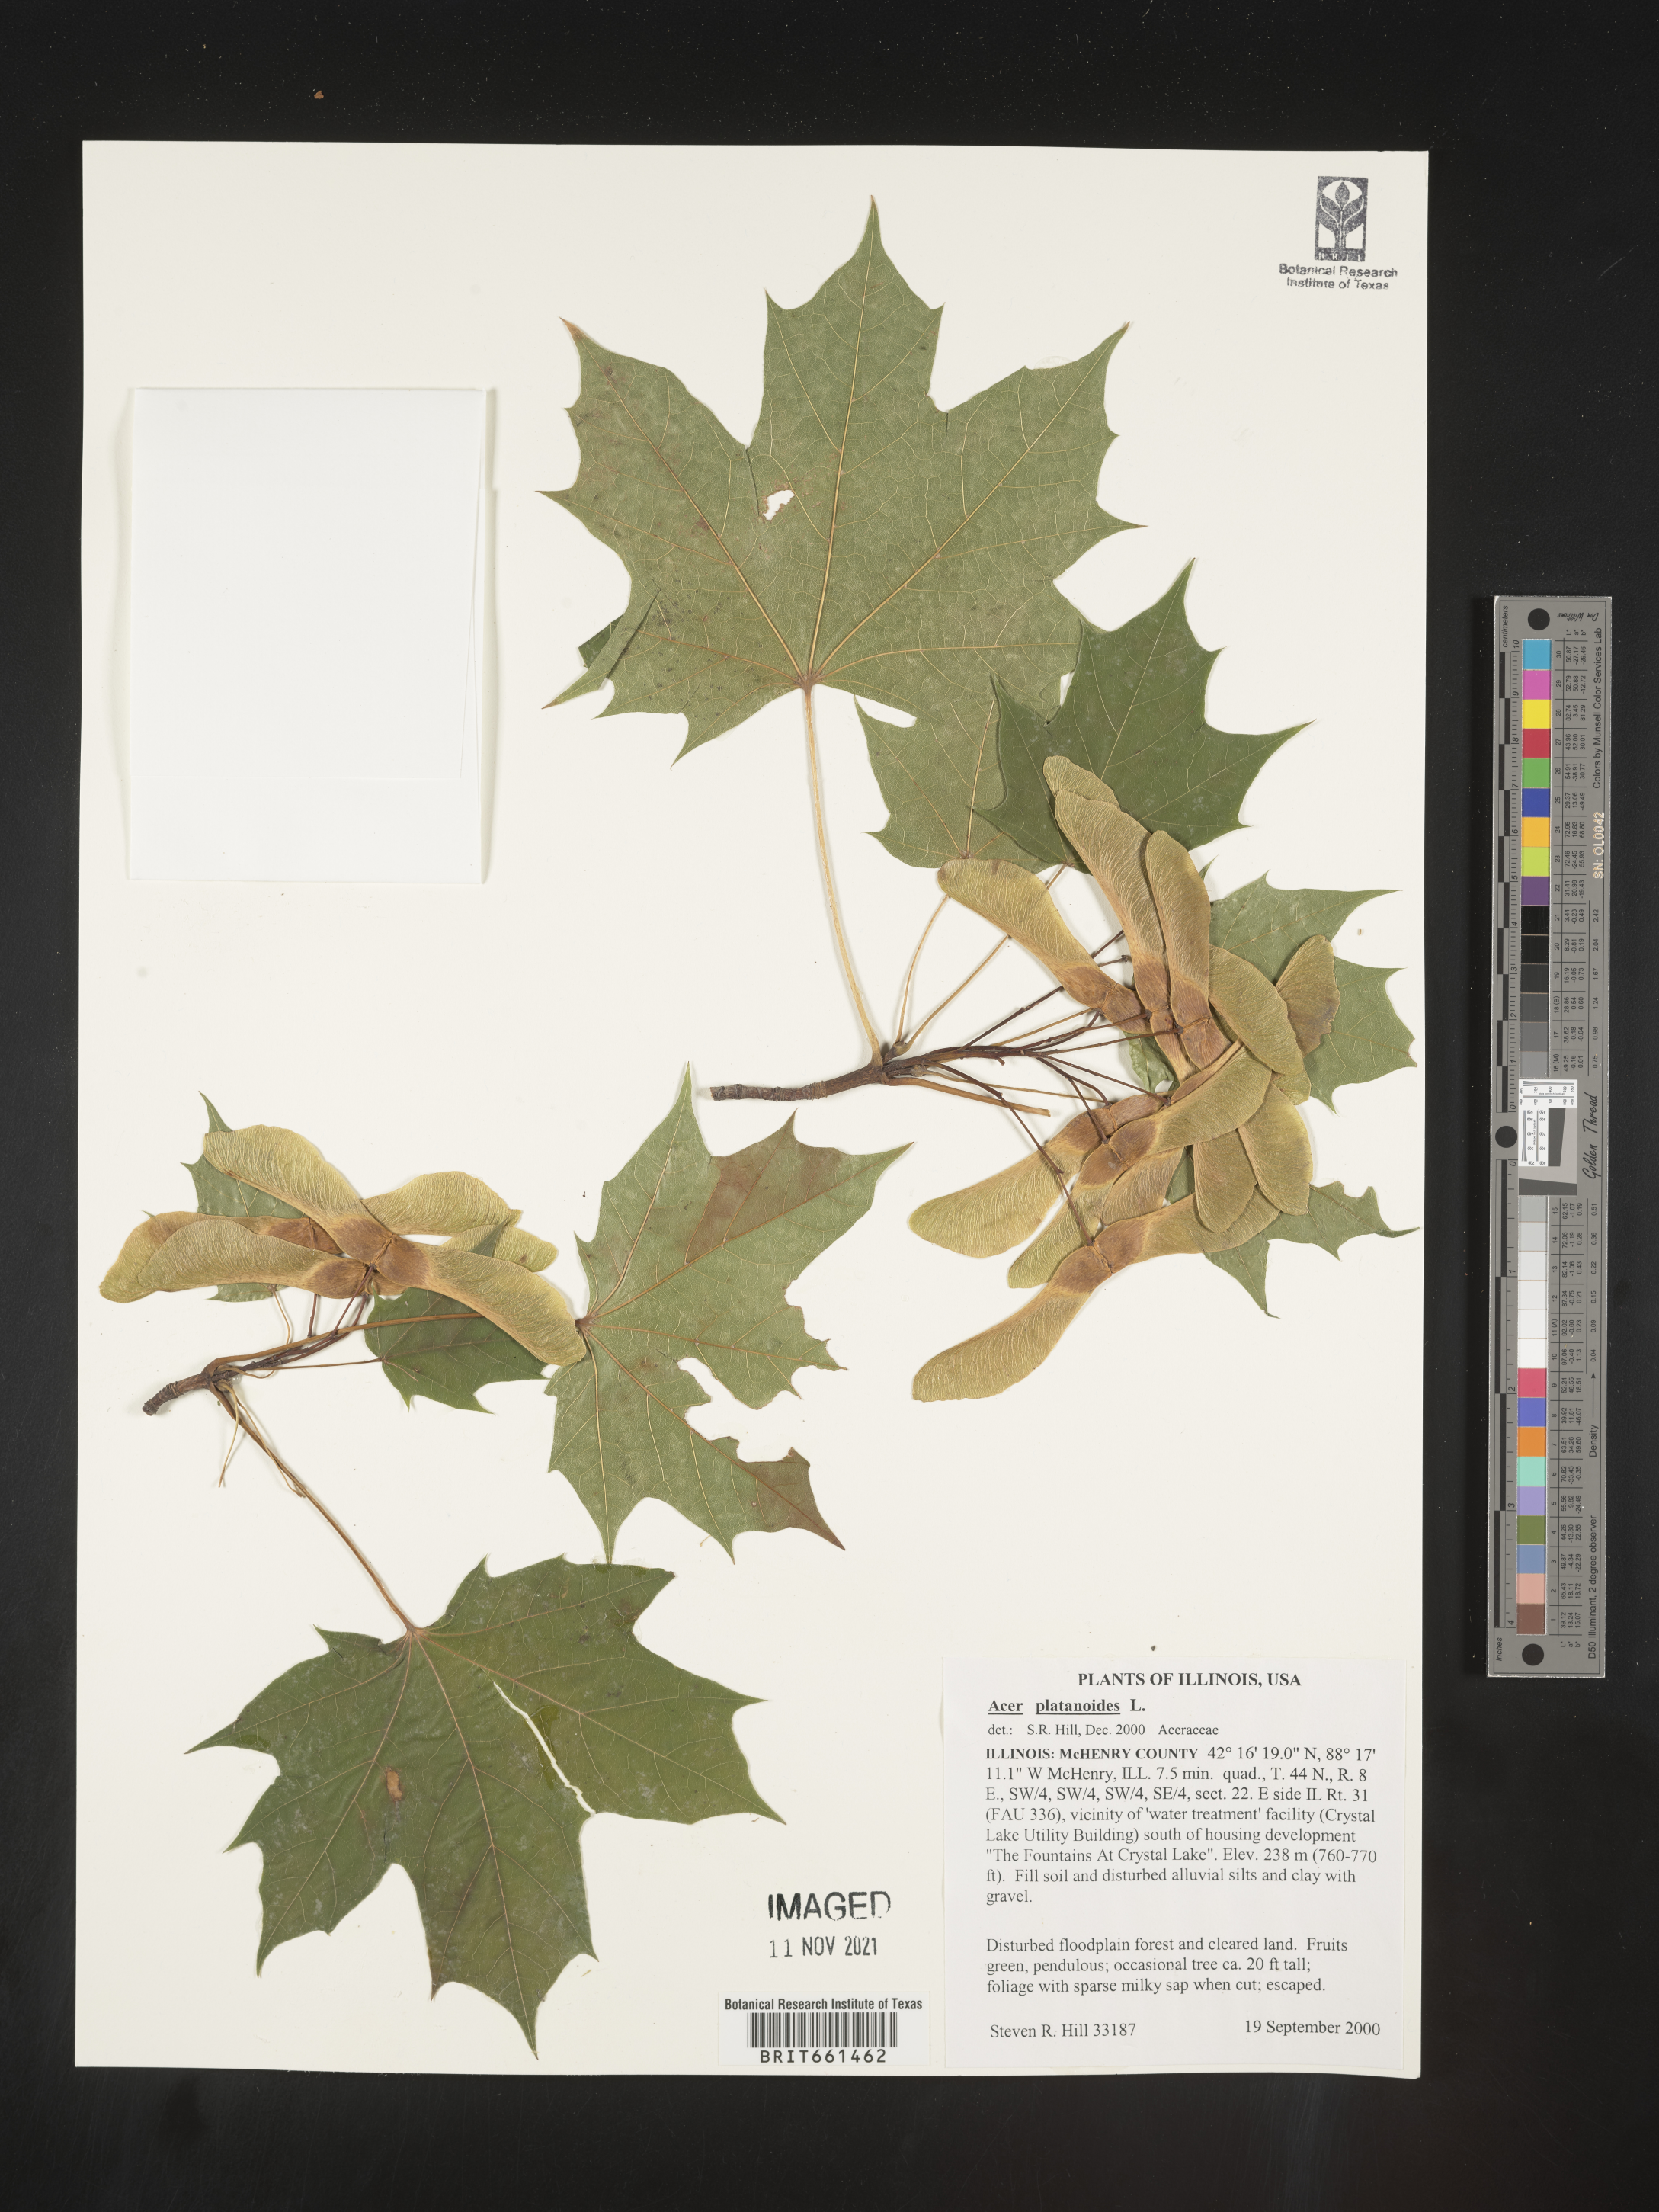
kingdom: Plantae
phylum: Tracheophyta
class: Magnoliopsida
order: Sapindales
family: Sapindaceae
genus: Acer
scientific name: Acer
